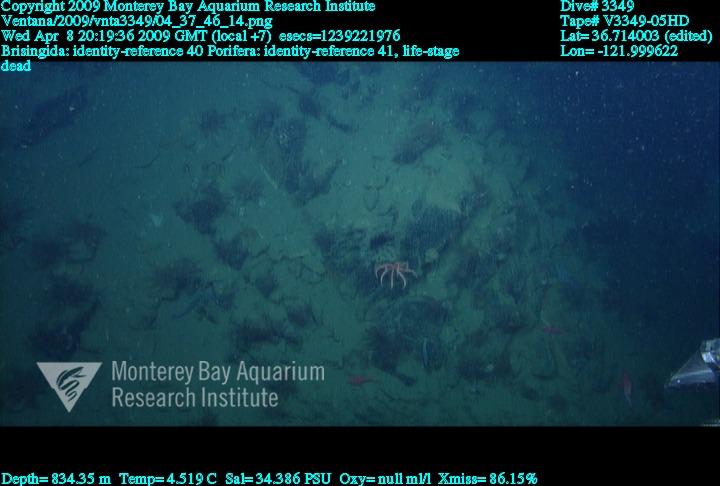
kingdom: Animalia
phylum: Porifera
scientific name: Porifera
